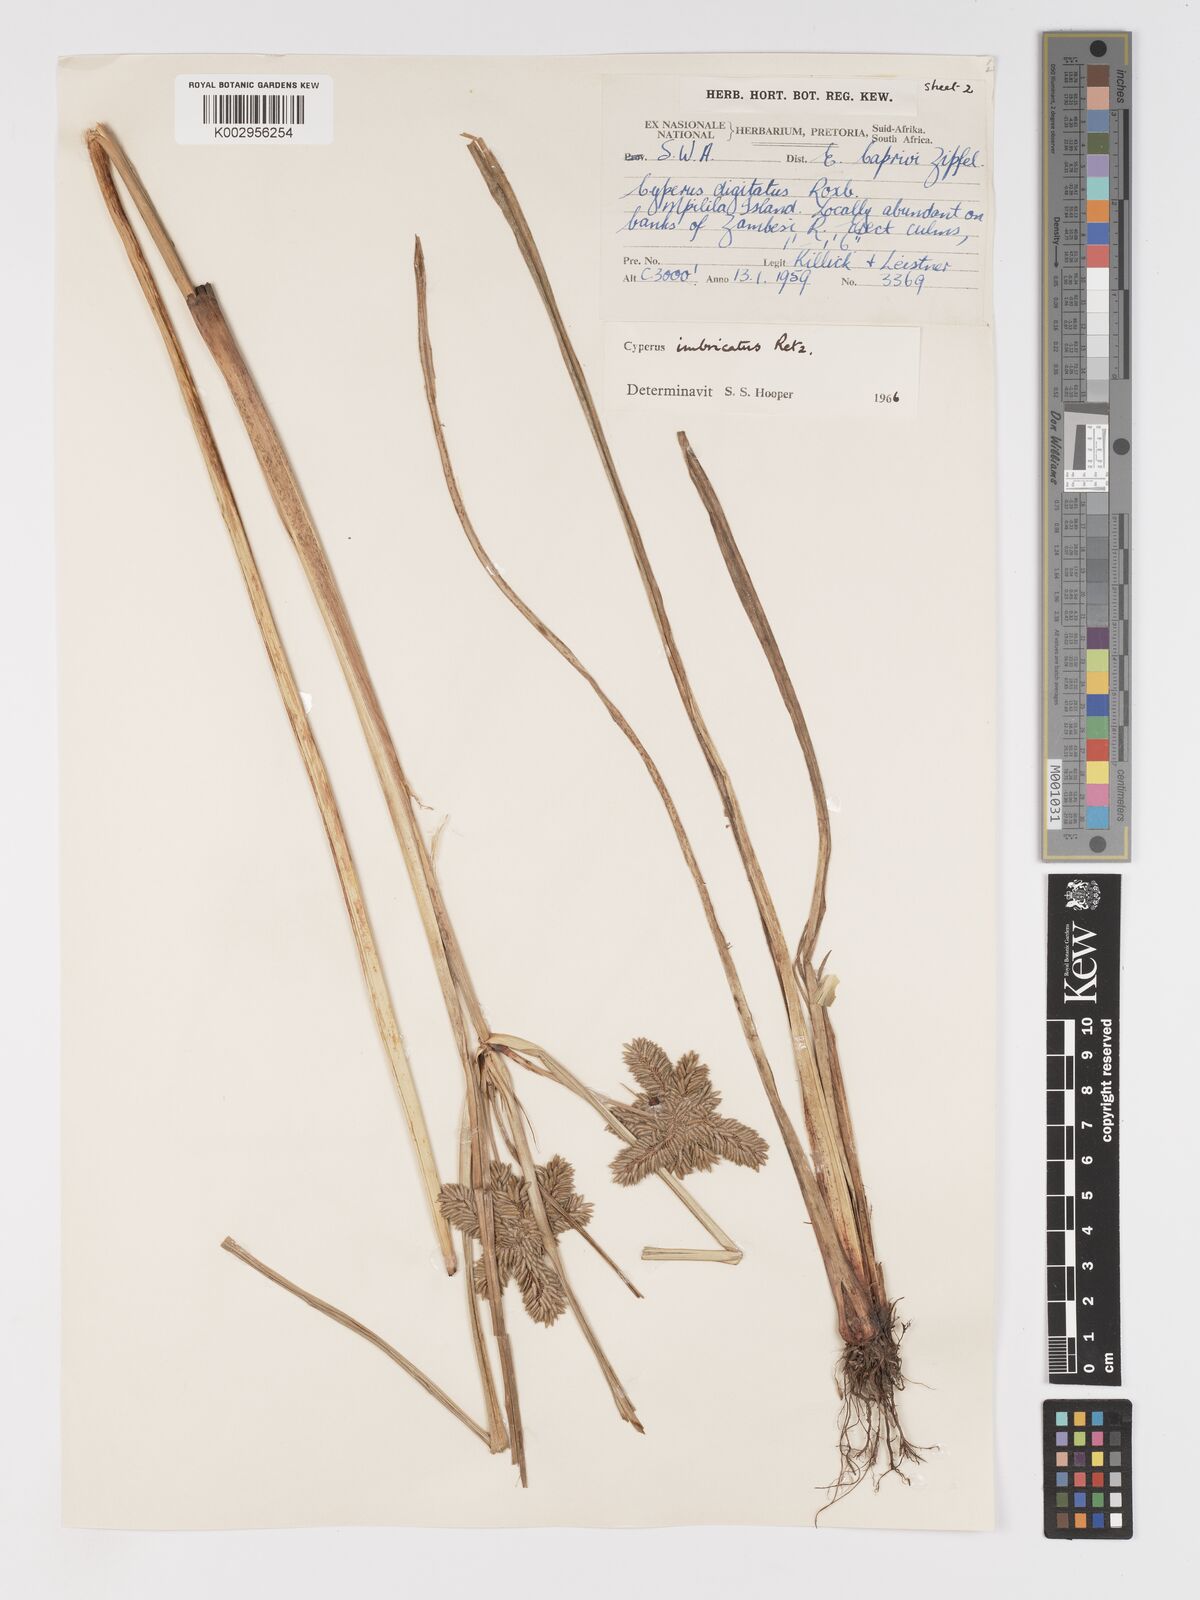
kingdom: Plantae
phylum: Tracheophyta
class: Liliopsida
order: Poales
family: Cyperaceae
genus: Cyperus
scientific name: Cyperus imbricatus
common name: Shingle flatsedge
